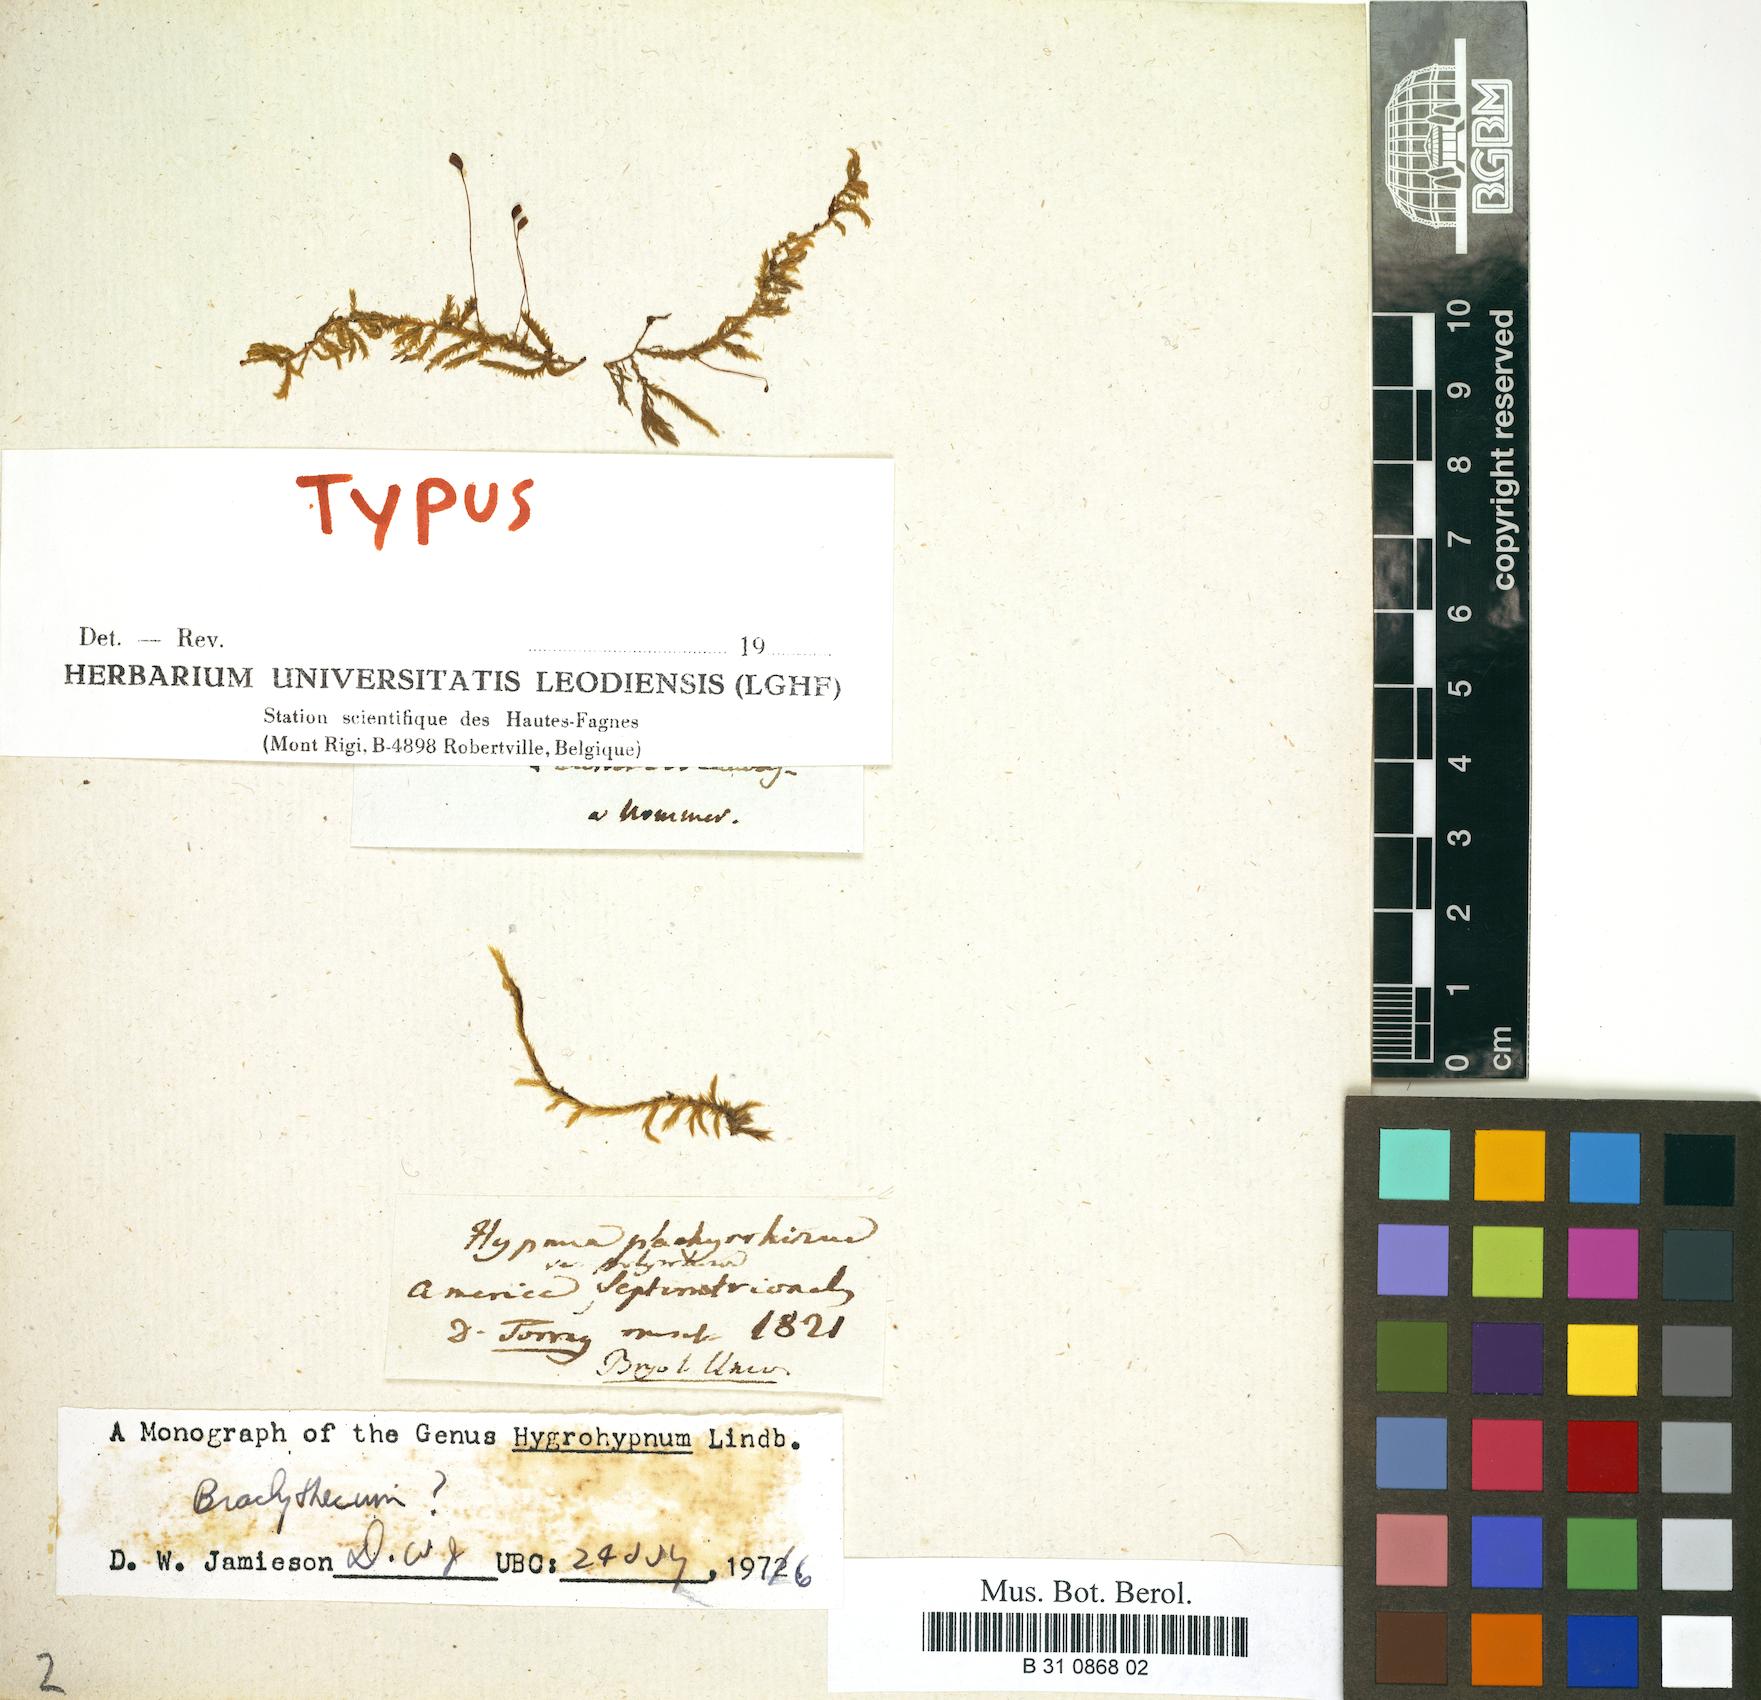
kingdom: Plantae
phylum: Bryophyta
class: Bryopsida
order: Hypnales
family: Brachytheciaceae
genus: Sciuro-hypnum
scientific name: Sciuro-hypnum plumosum
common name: Rusty feather-moss
